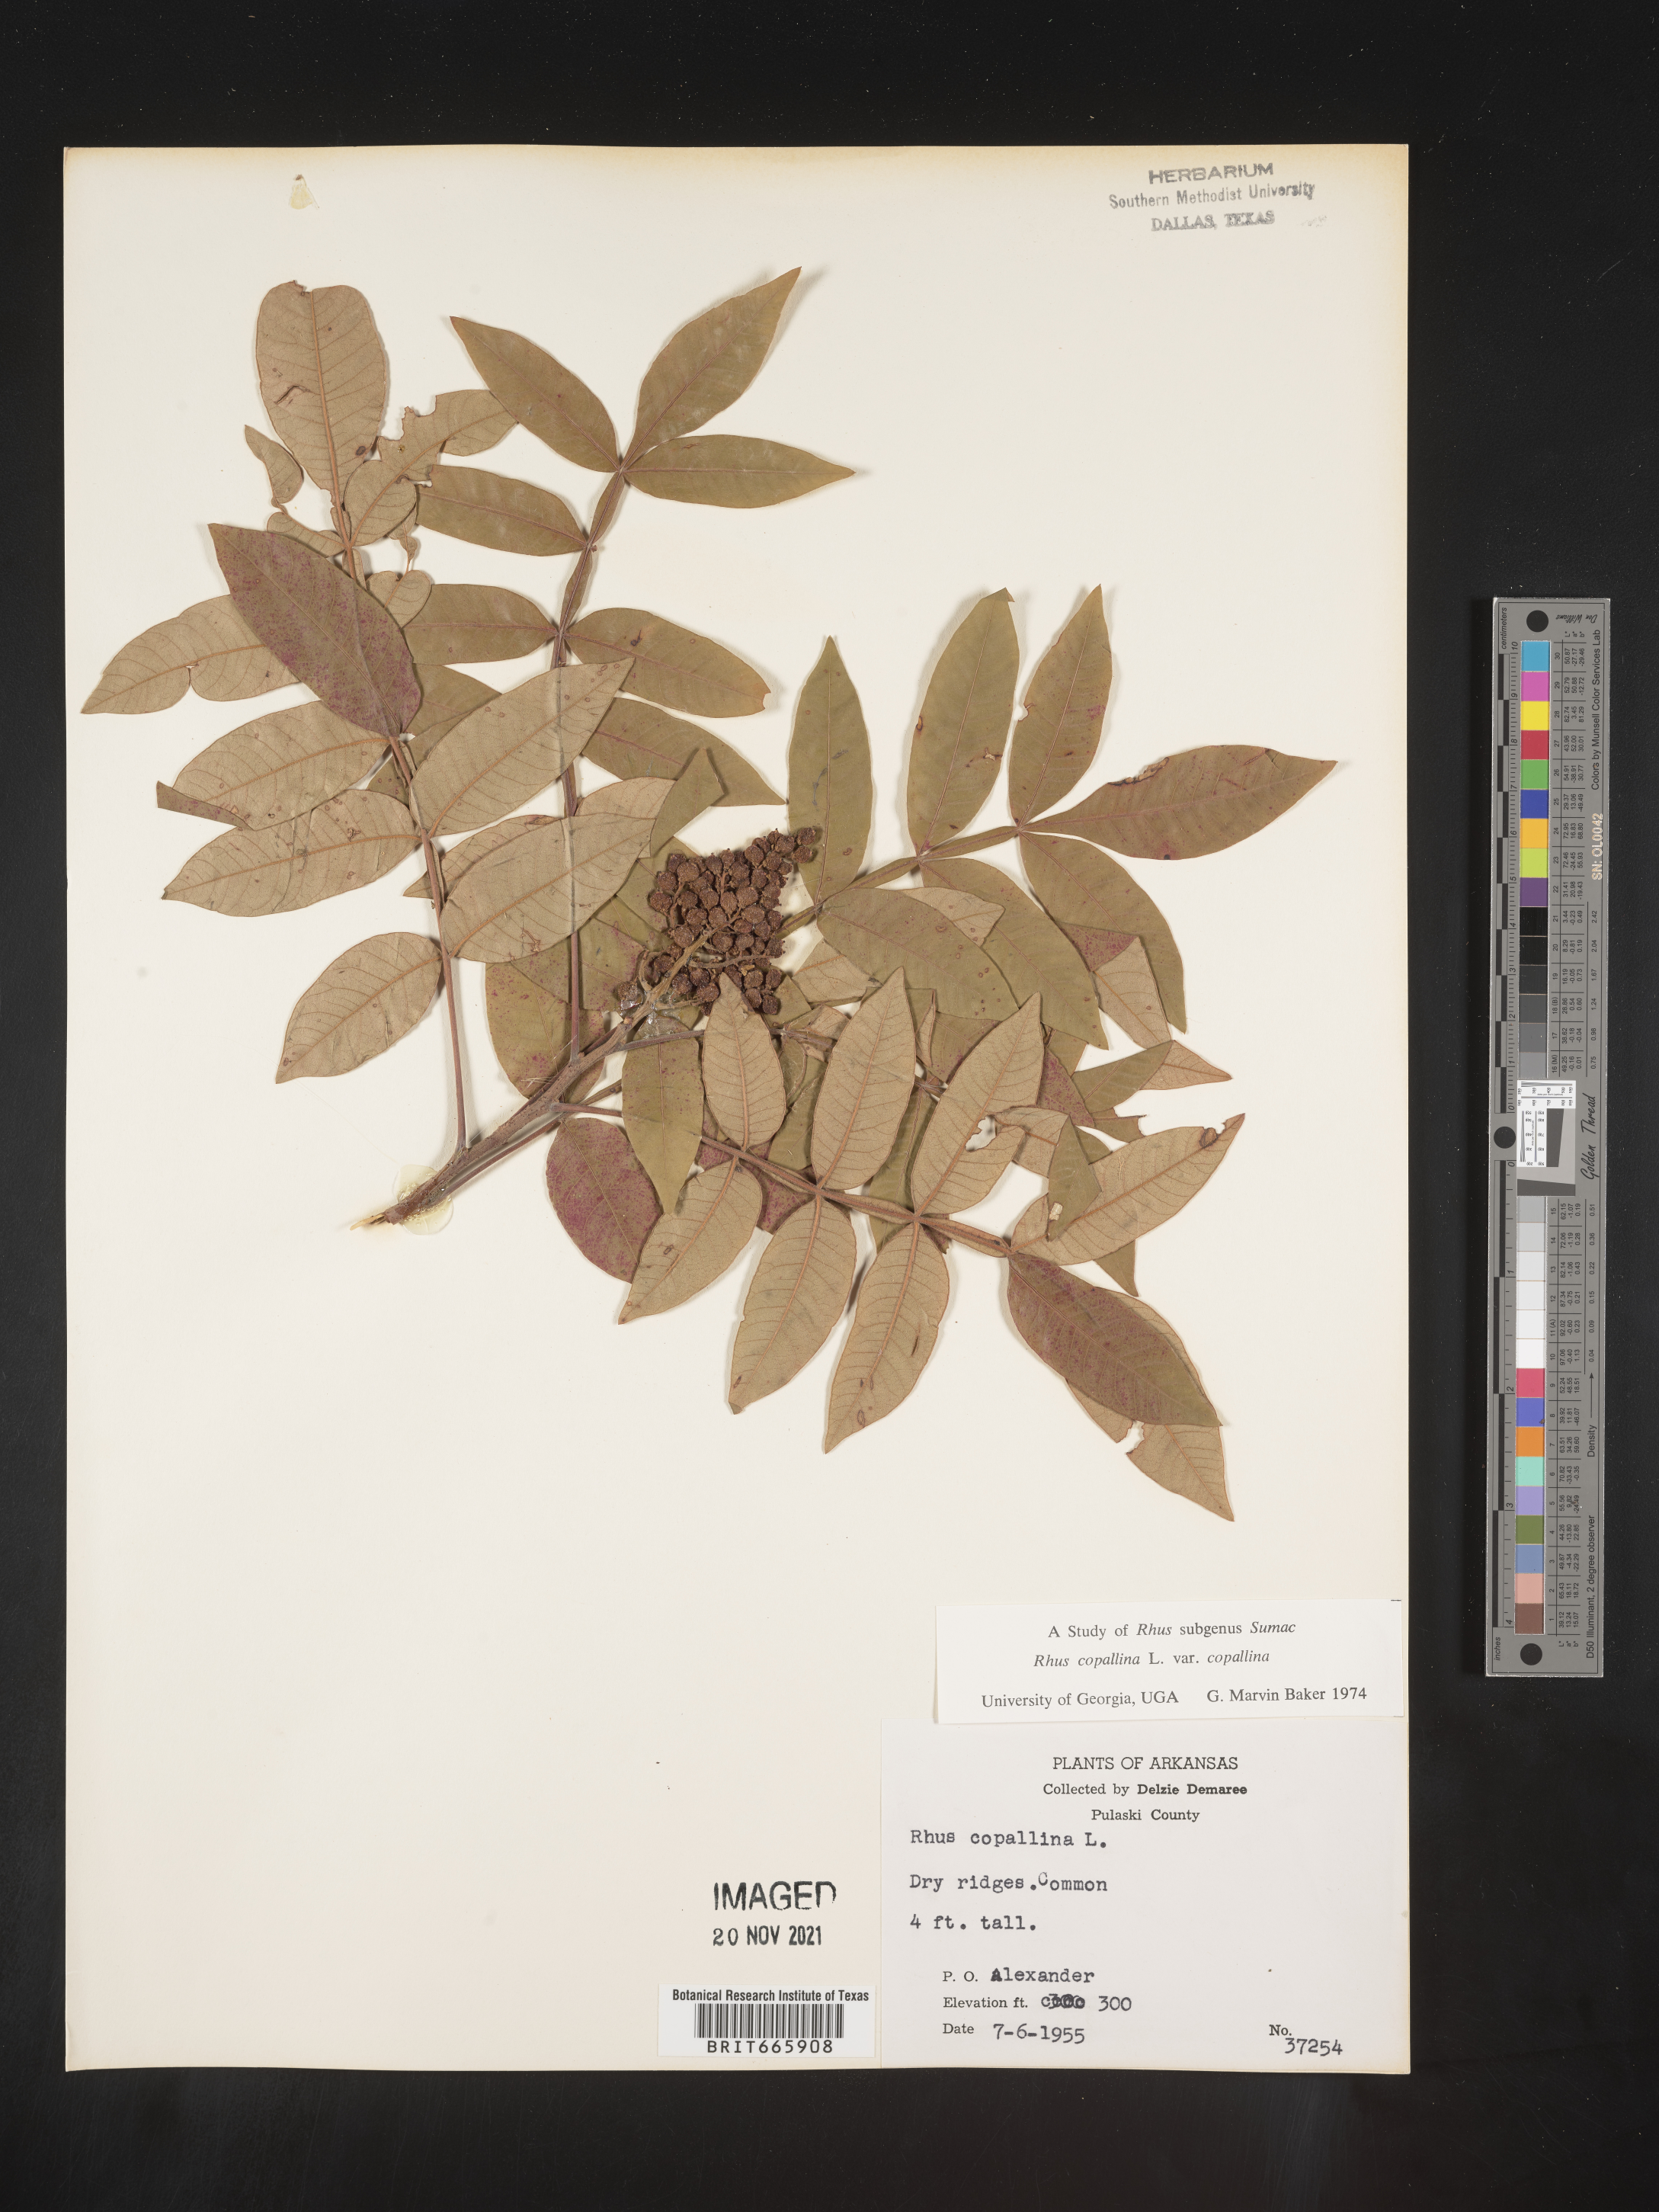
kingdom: Plantae
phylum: Tracheophyta
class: Magnoliopsida
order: Sapindales
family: Anacardiaceae
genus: Rhus
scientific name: Rhus copallina
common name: Shining sumac
